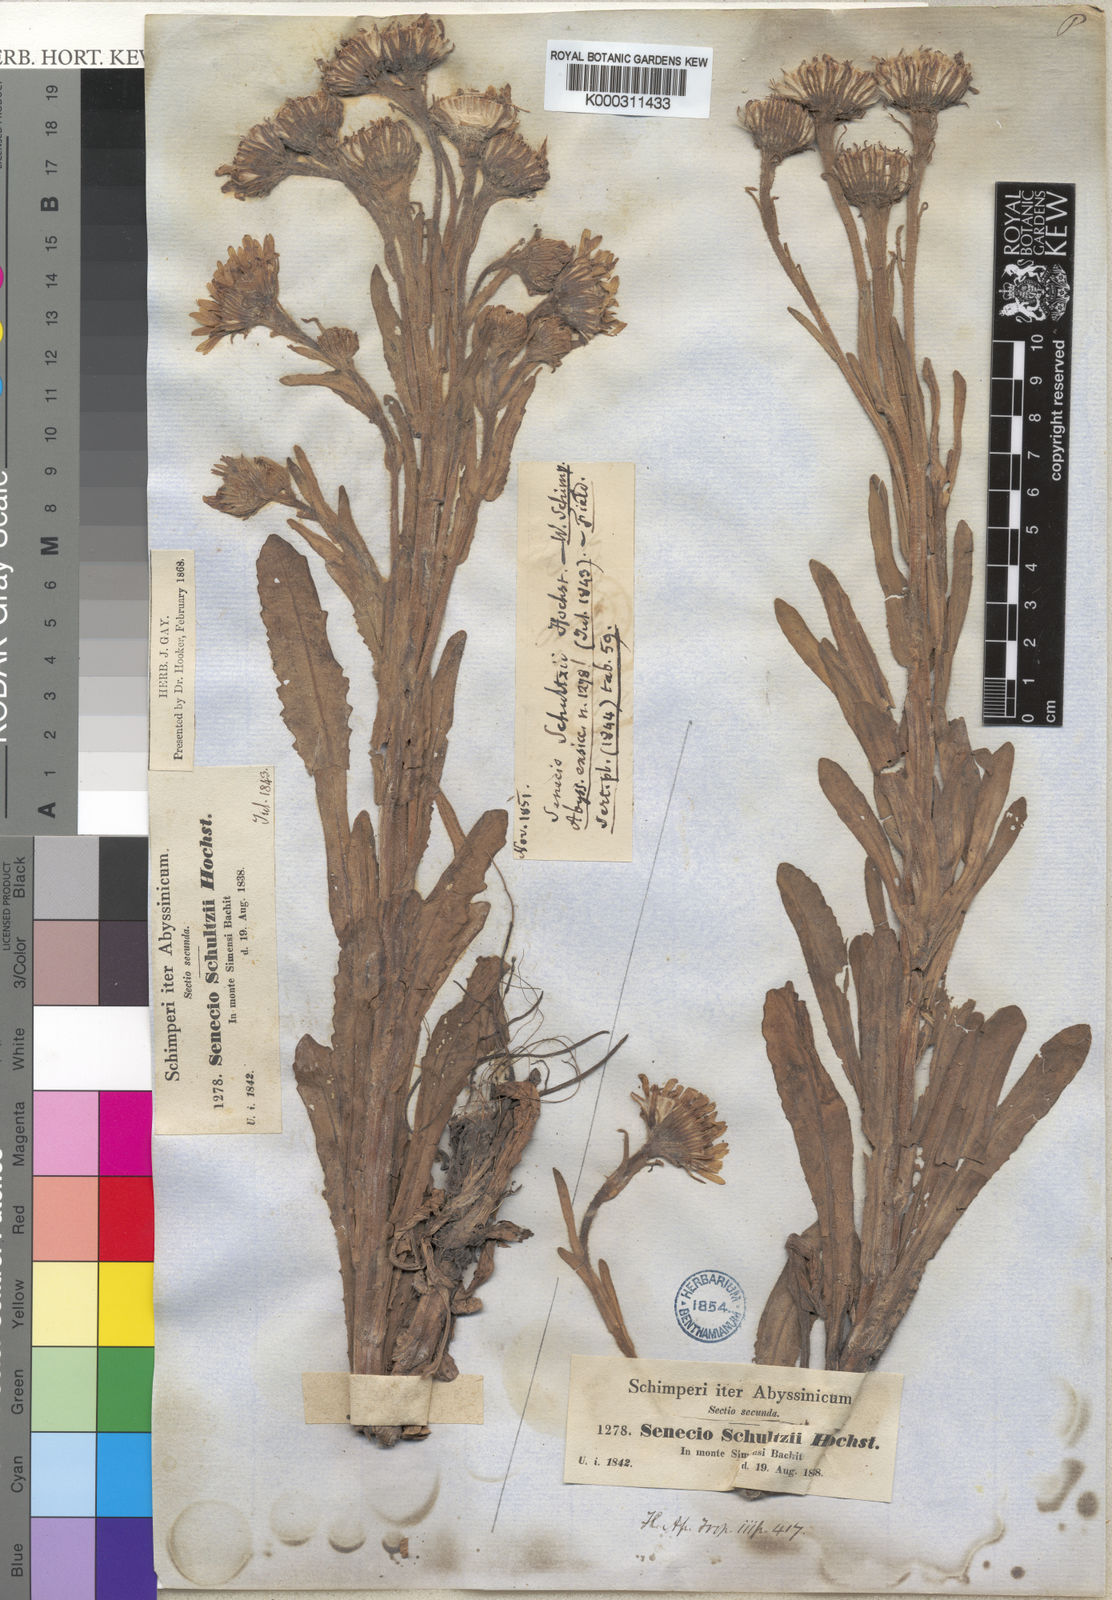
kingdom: Plantae
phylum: Tracheophyta
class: Magnoliopsida
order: Asterales
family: Asteraceae
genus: Senecio
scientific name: Senecio schultzii
